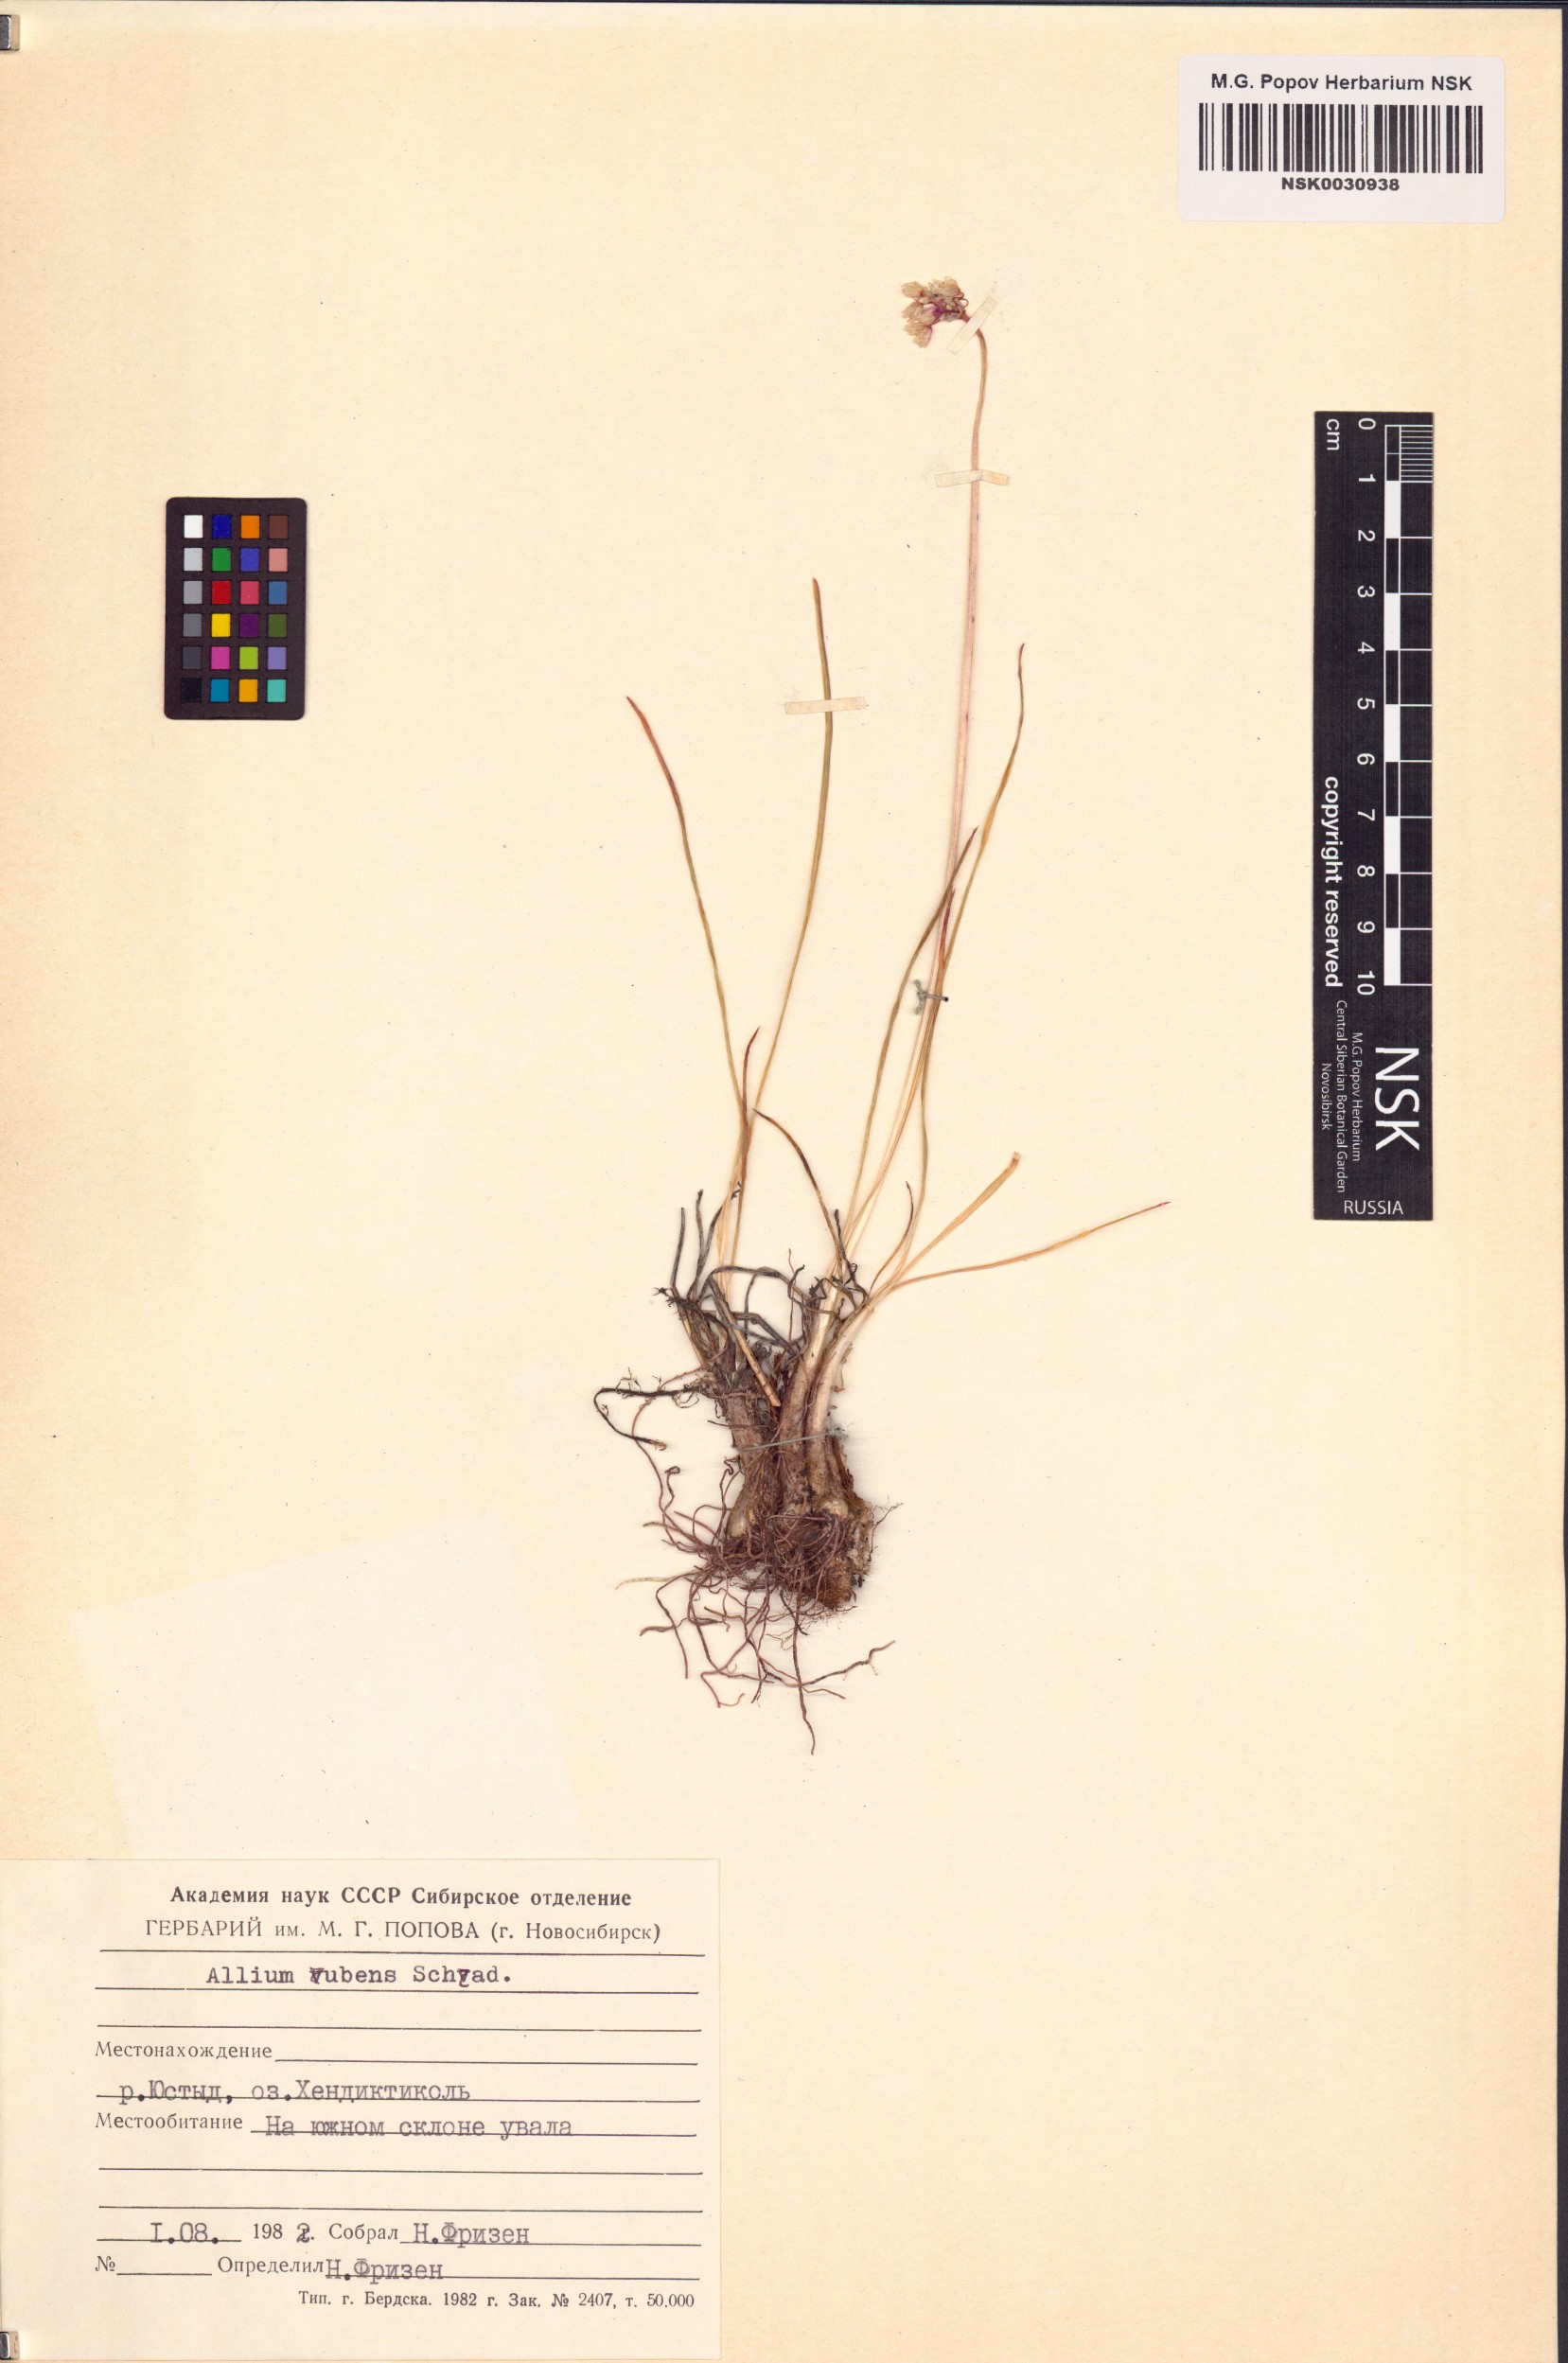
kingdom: Plantae
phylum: Tracheophyta
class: Liliopsida
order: Asparagales
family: Amaryllidaceae
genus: Allium
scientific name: Allium rubens
